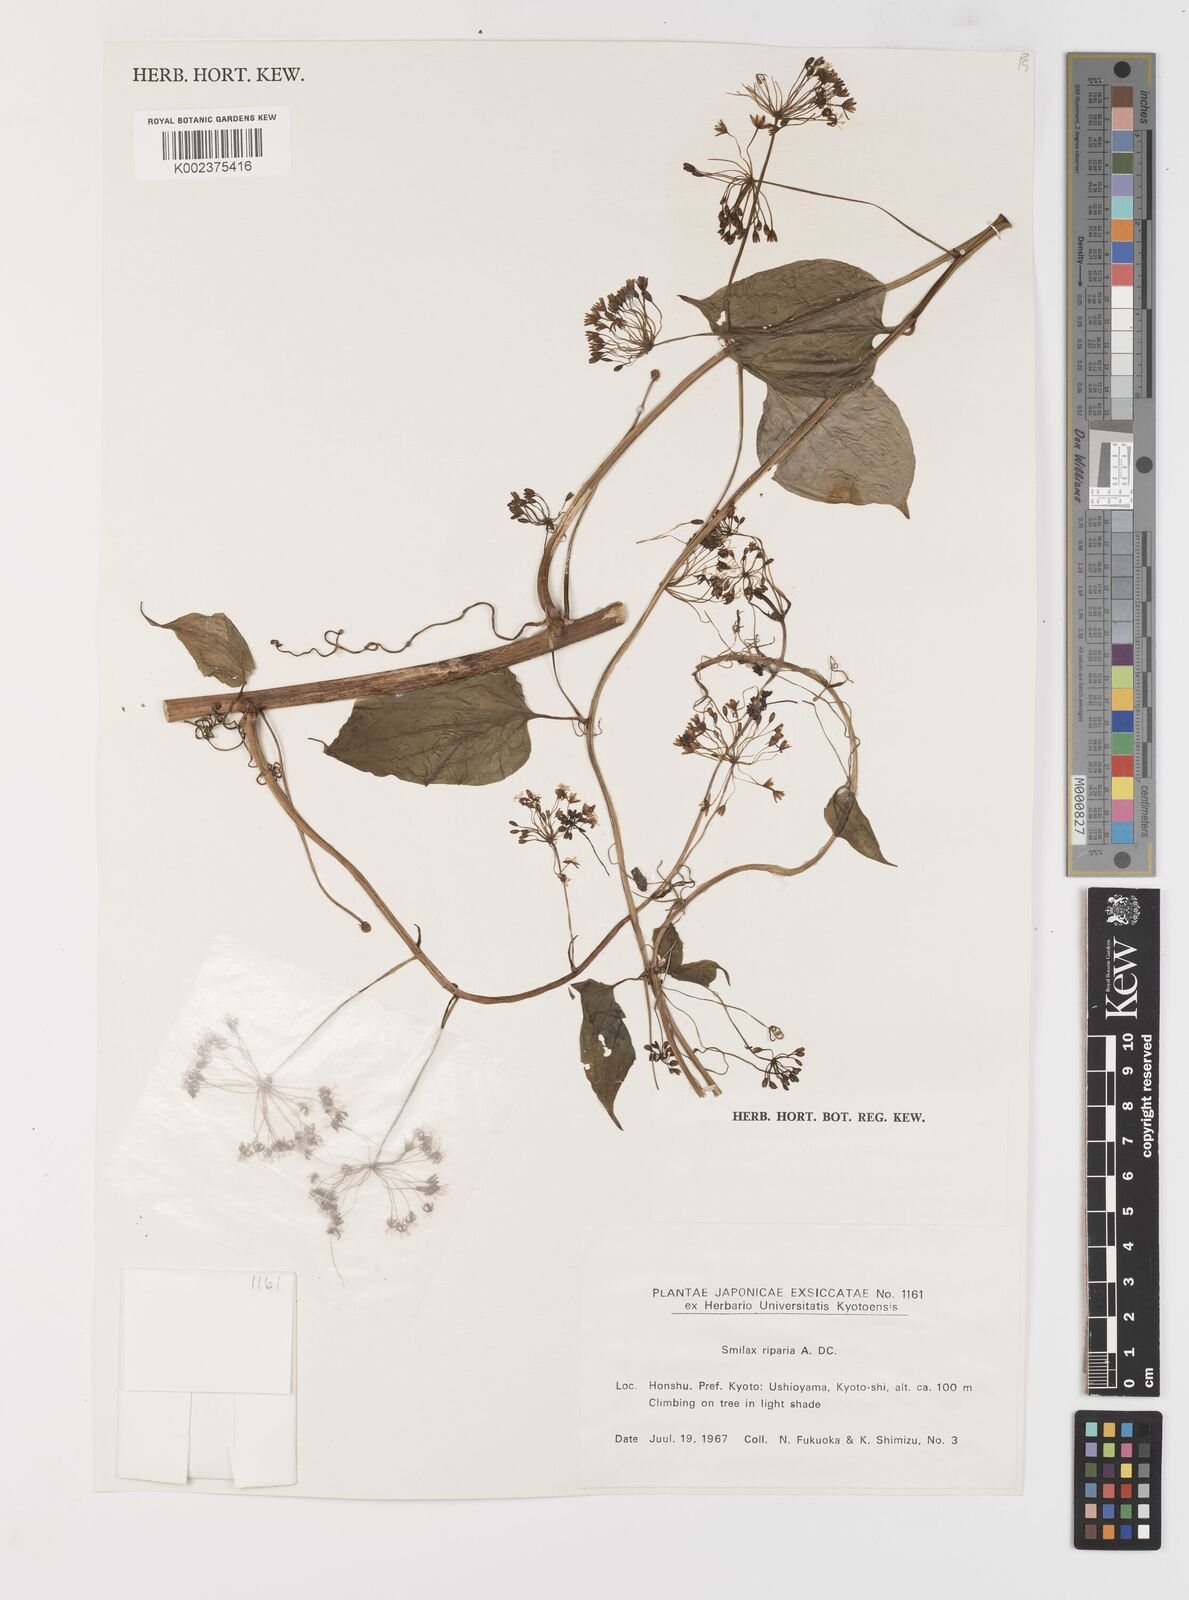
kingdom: Plantae
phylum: Tracheophyta
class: Liliopsida
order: Liliales
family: Smilacaceae
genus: Smilax
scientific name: Smilax riparia
